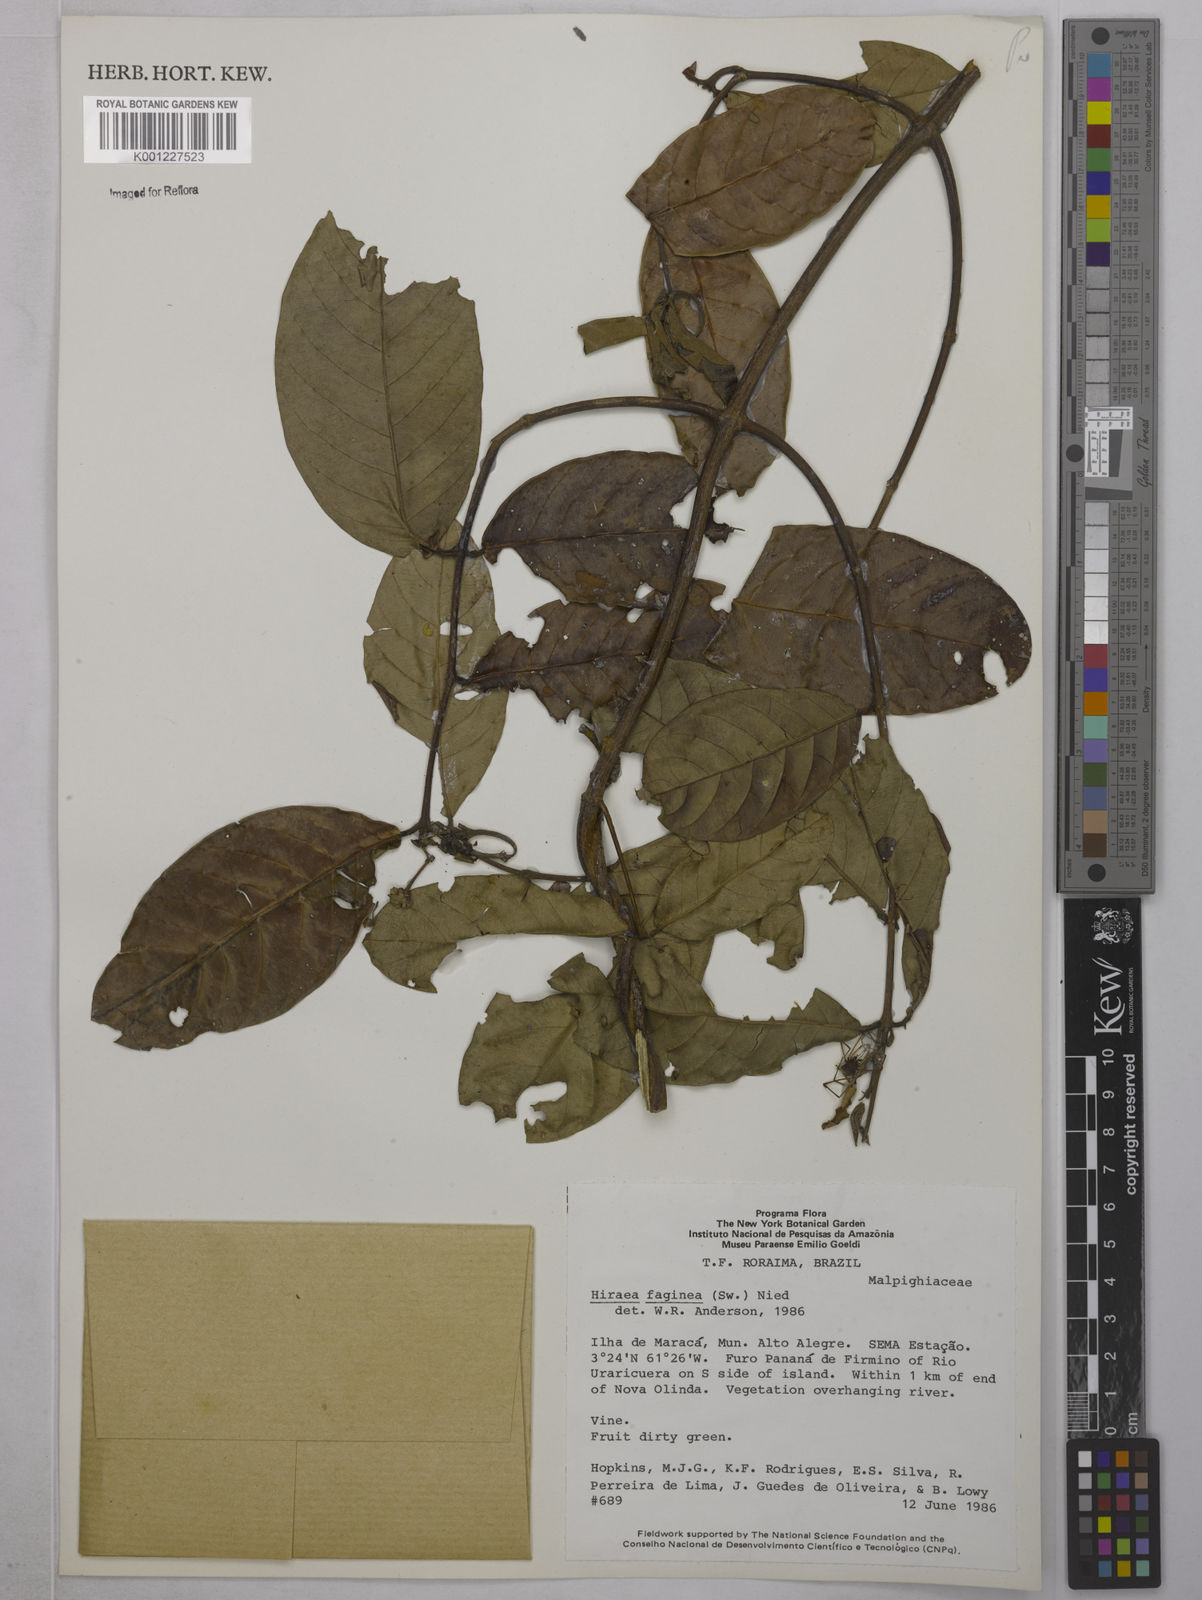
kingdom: Plantae
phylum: Tracheophyta
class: Magnoliopsida
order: Malpighiales
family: Malpighiaceae
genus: Hiraea
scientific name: Hiraea faginea
